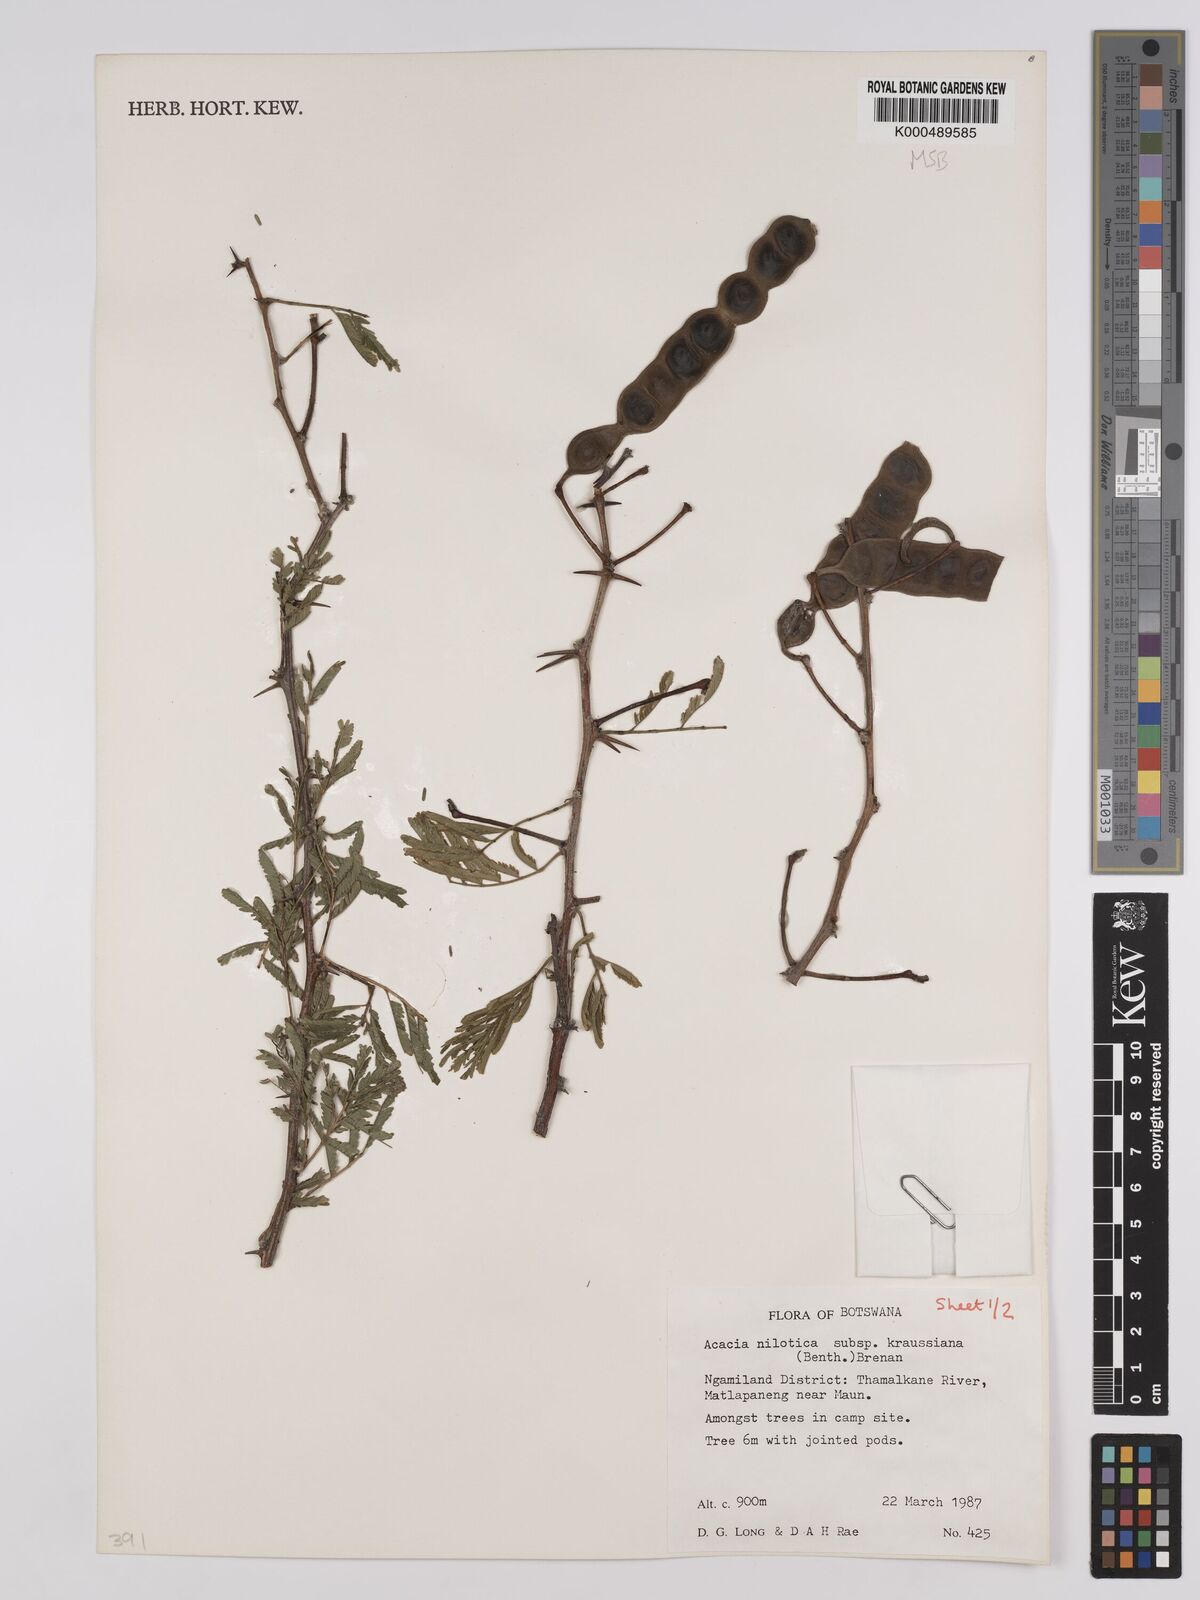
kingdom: Plantae
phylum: Tracheophyta
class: Magnoliopsida
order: Fabales
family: Fabaceae
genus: Vachellia
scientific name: Vachellia nilotica
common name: Arabic gumtree
